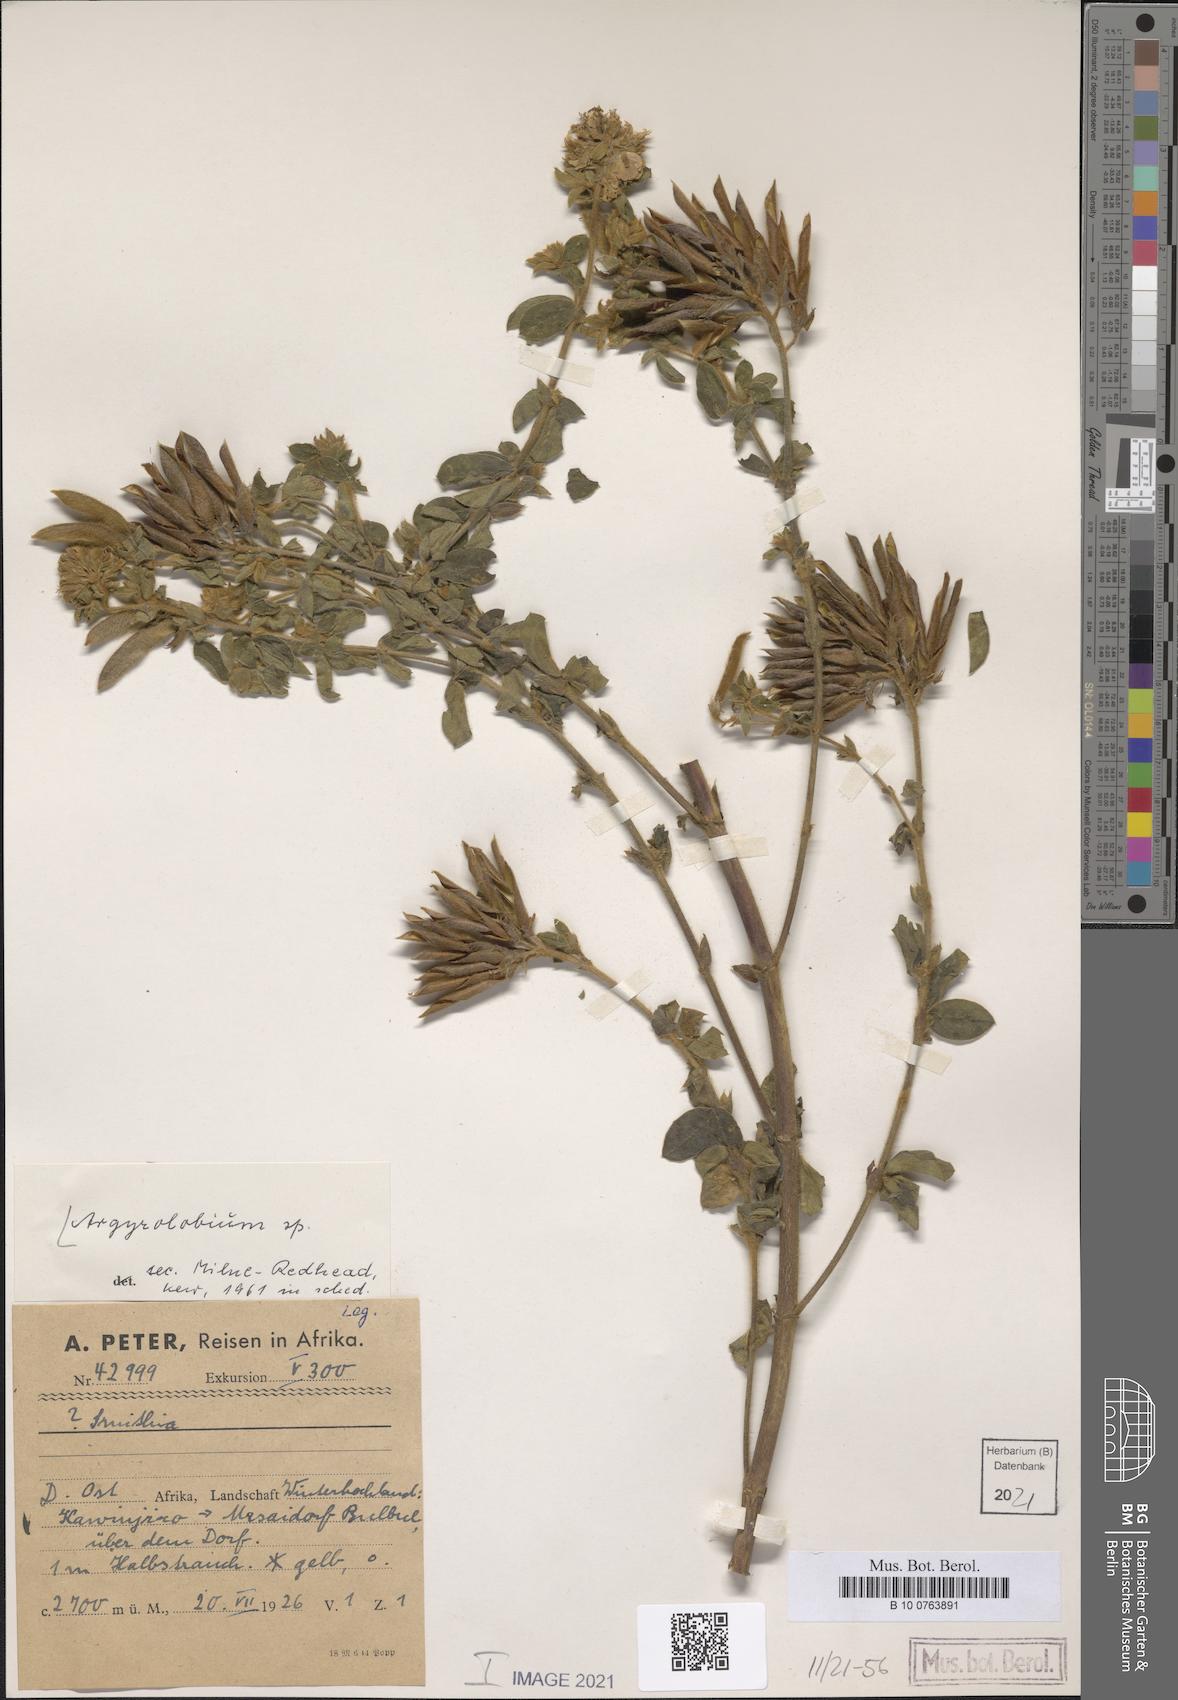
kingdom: Plantae
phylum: Tracheophyta
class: Magnoliopsida
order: Fabales
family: Fabaceae
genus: Argyrolobium
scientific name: Argyrolobium
